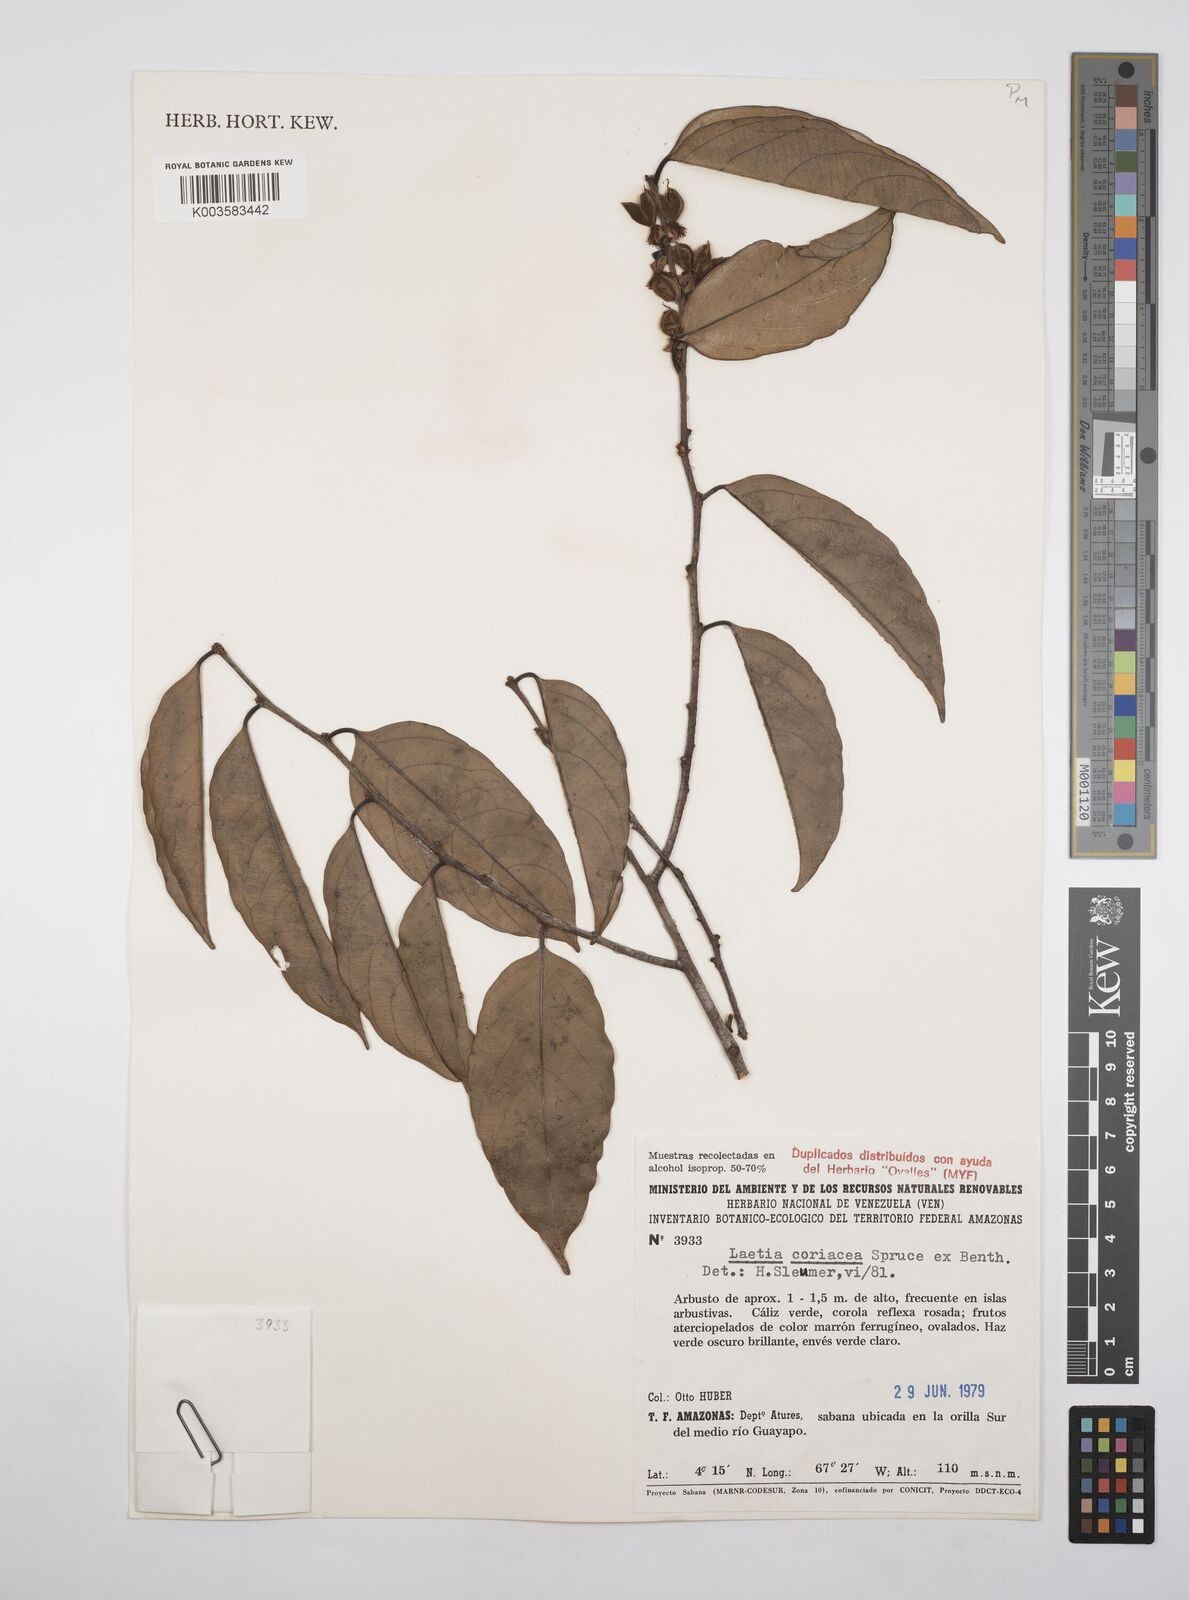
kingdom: Plantae
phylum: Tracheophyta
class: Magnoliopsida
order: Malpighiales
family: Salicaceae
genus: Irenodendron
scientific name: Irenodendron coriaceum
